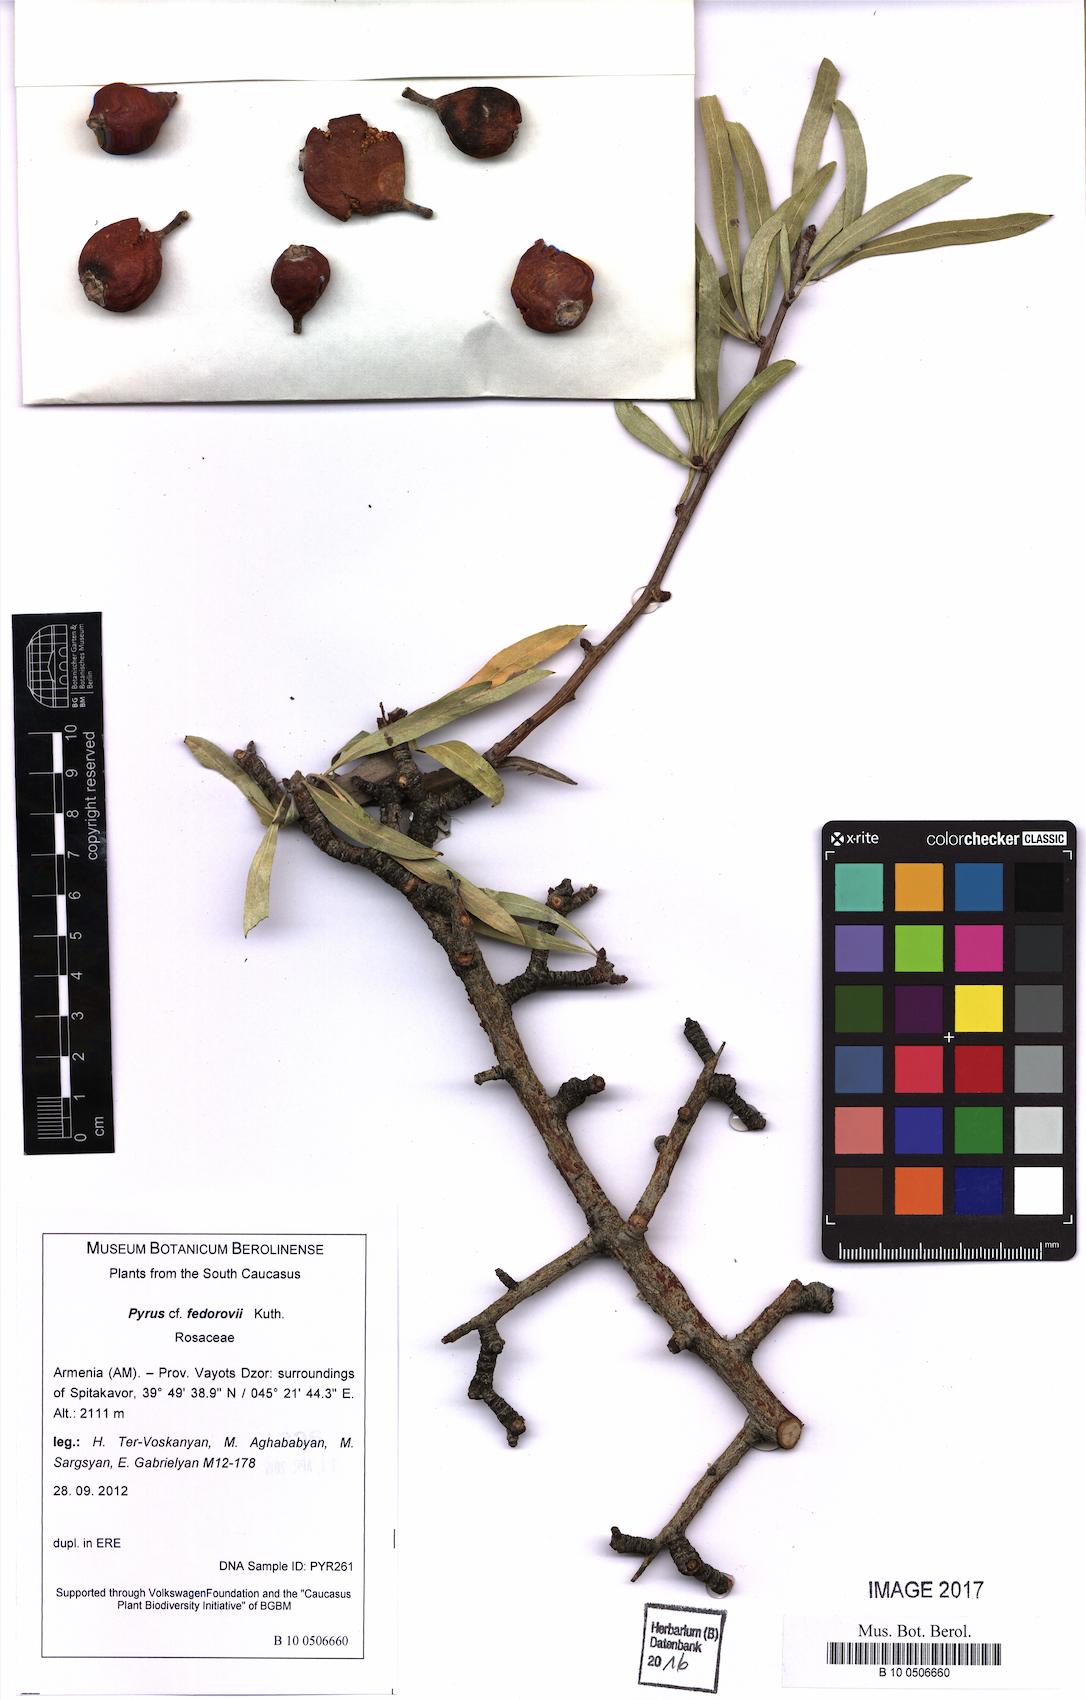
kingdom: Plantae
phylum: Tracheophyta
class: Magnoliopsida
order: Rosales
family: Rosaceae
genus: Pyrus
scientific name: Pyrus fedorovii
